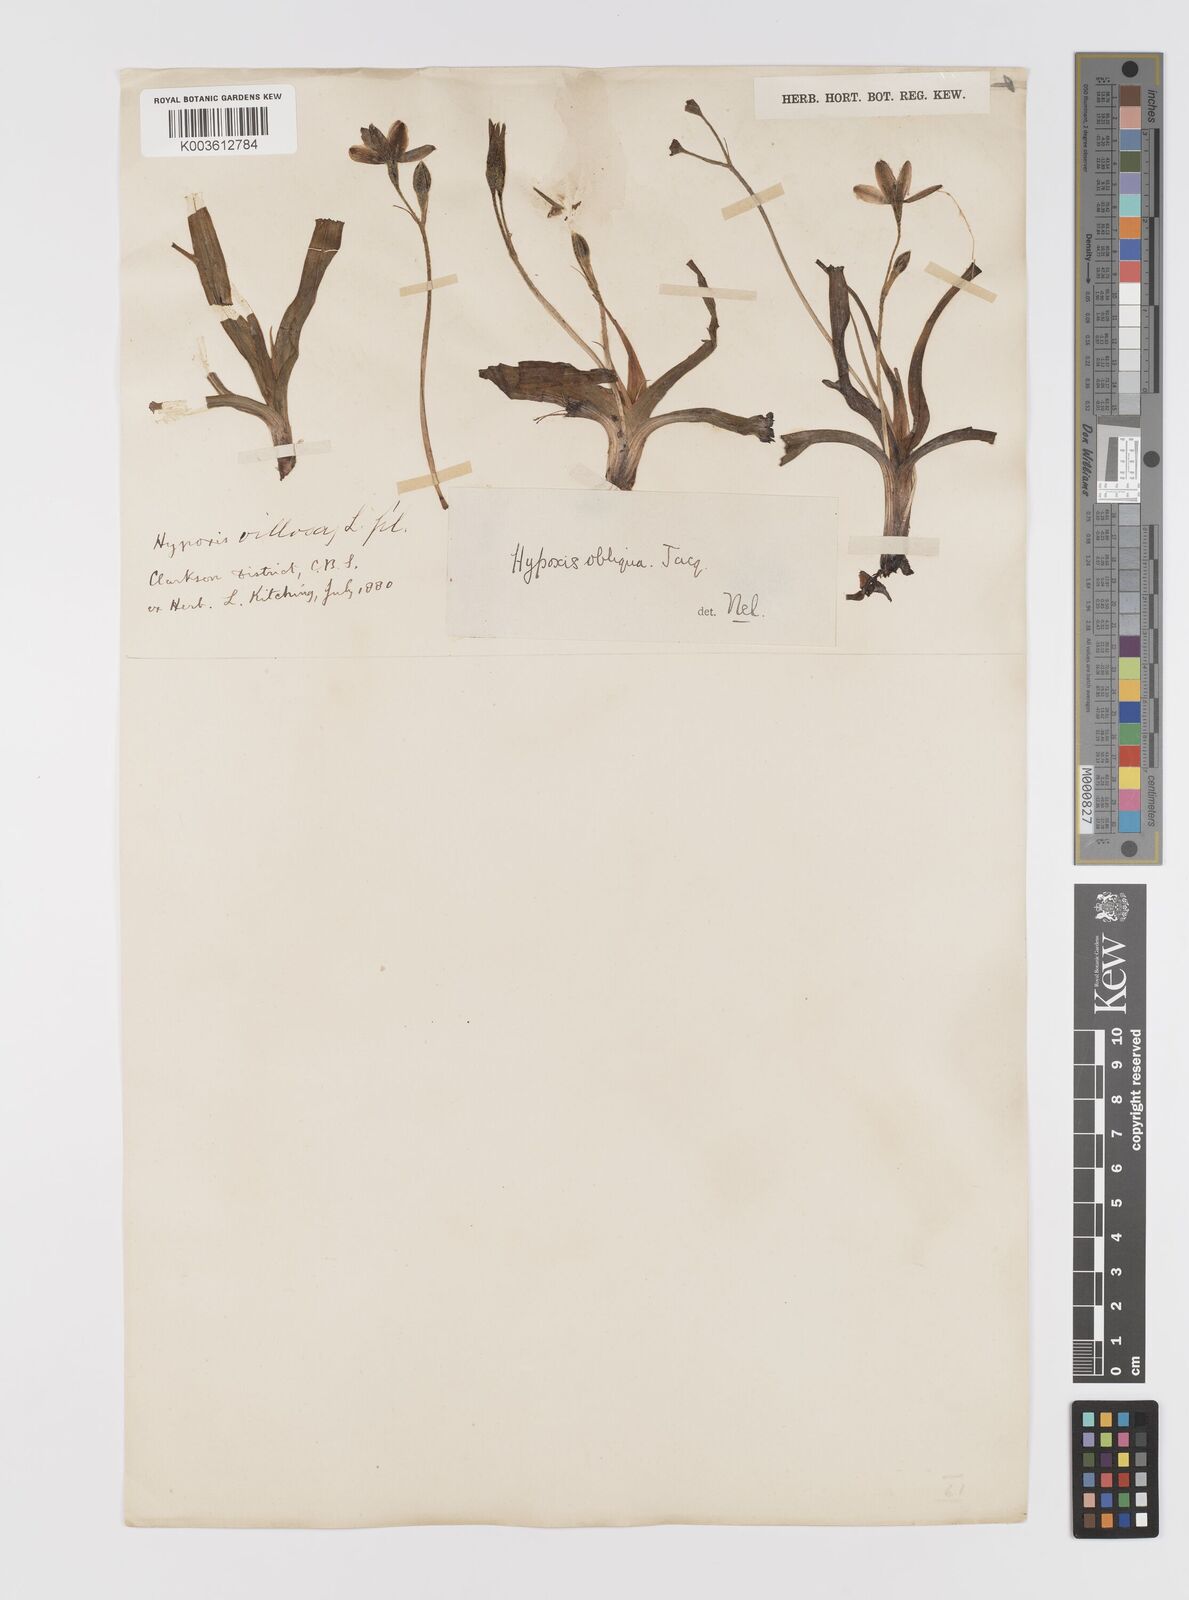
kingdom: Plantae
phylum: Tracheophyta
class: Liliopsida
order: Asparagales
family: Hypoxidaceae
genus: Hypoxis
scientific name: Hypoxis villosa
